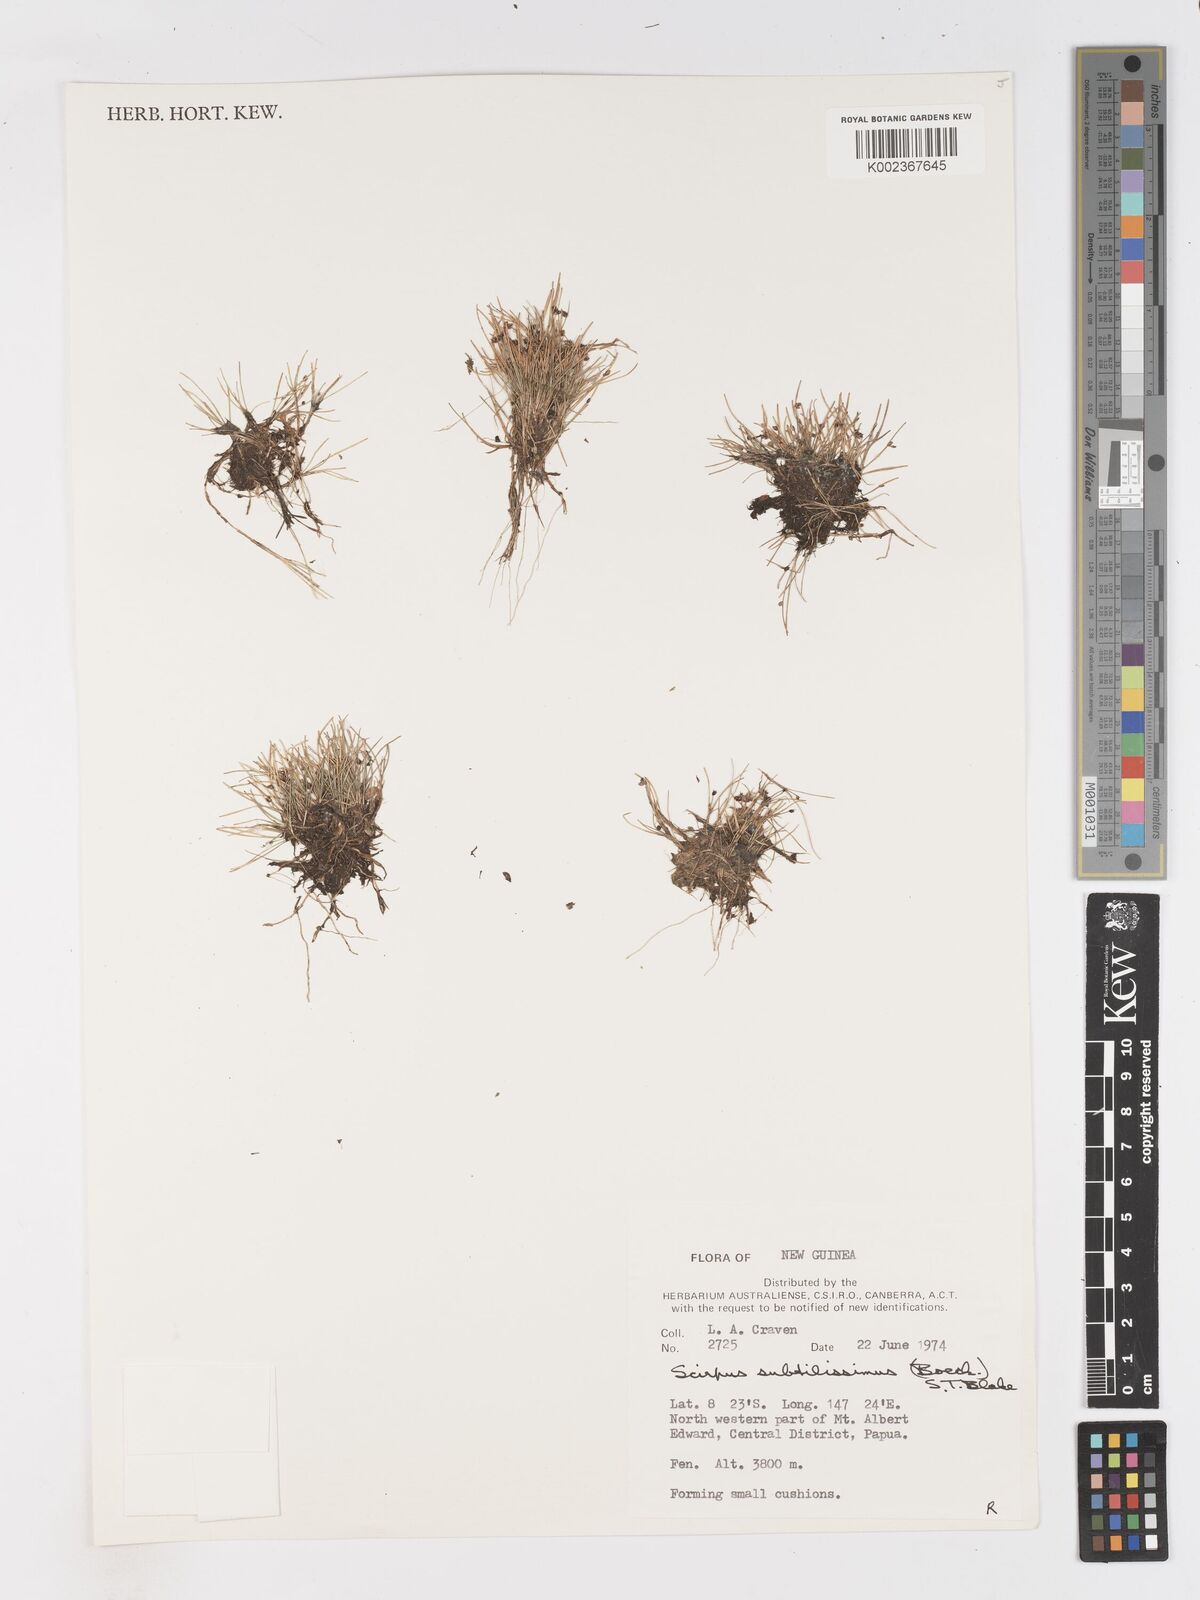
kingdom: Plantae
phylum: Tracheophyta
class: Liliopsida
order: Poales
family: Cyperaceae
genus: Isolepis
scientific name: Isolepis subtilissima
